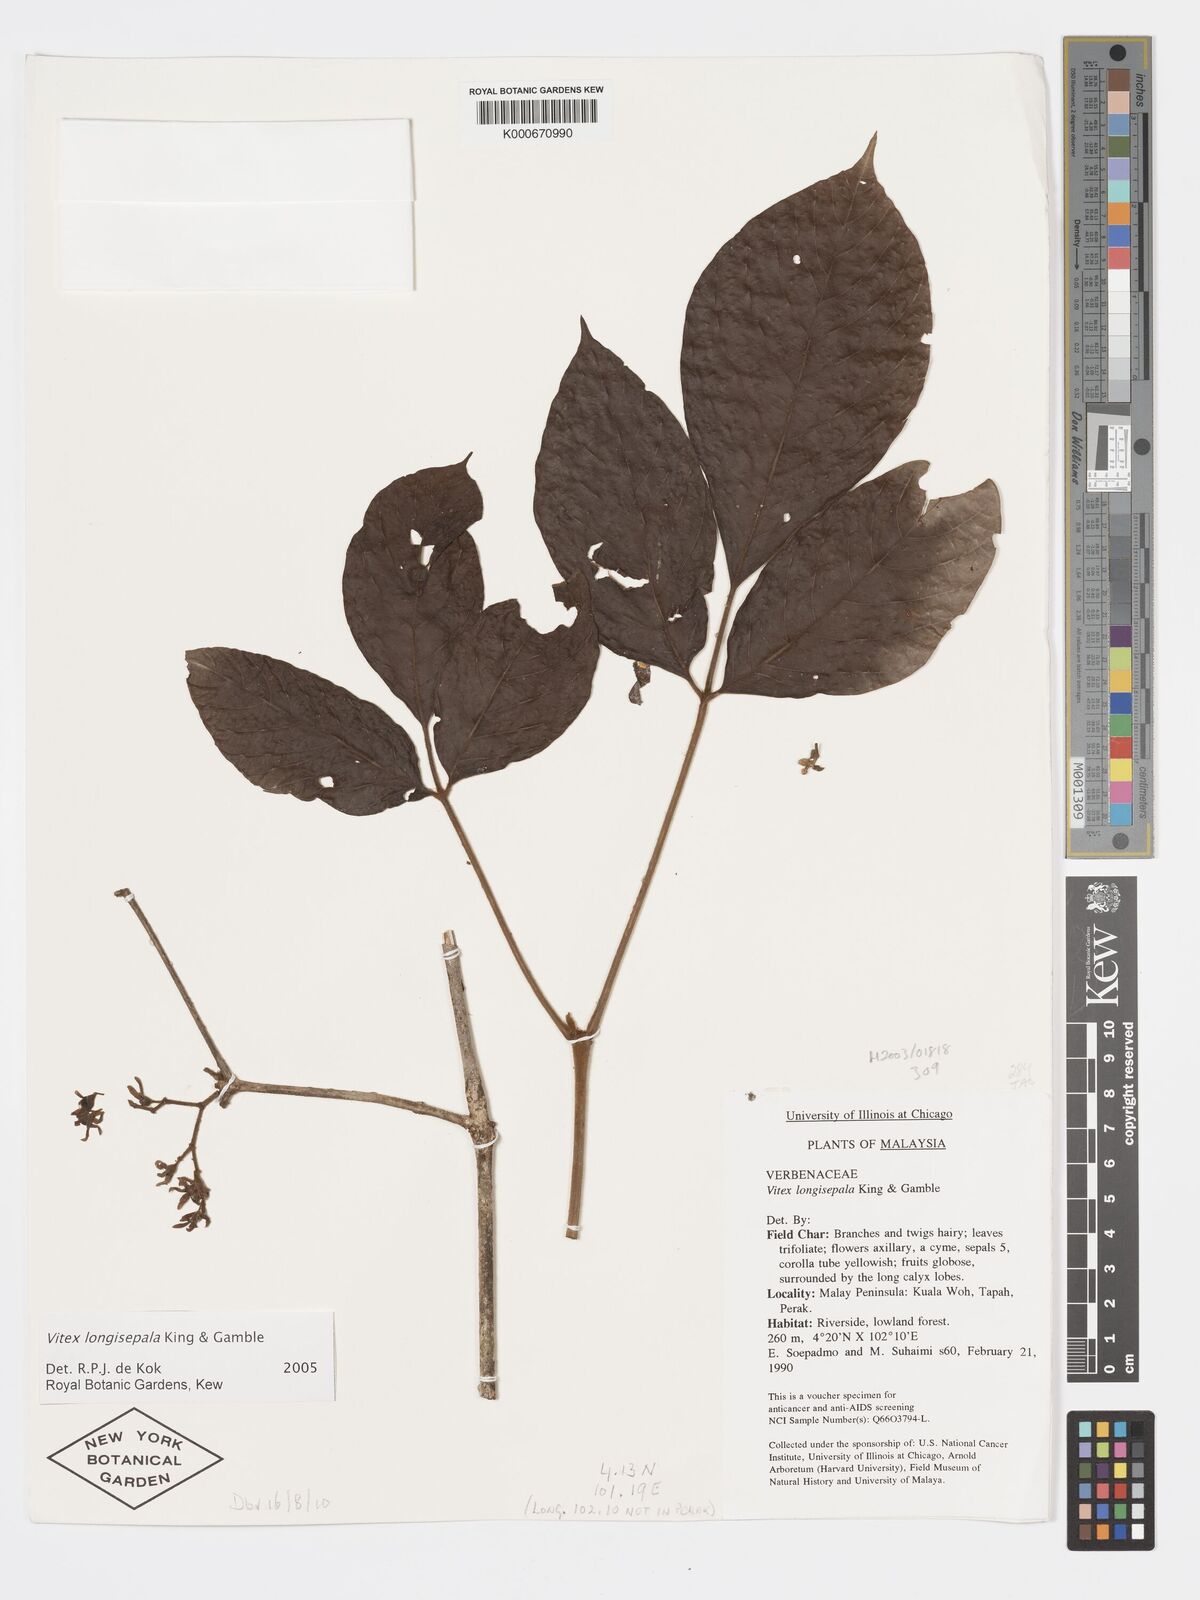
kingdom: Plantae
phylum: Tracheophyta
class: Magnoliopsida
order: Lamiales
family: Lamiaceae
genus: Vitex
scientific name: Vitex longisepala
